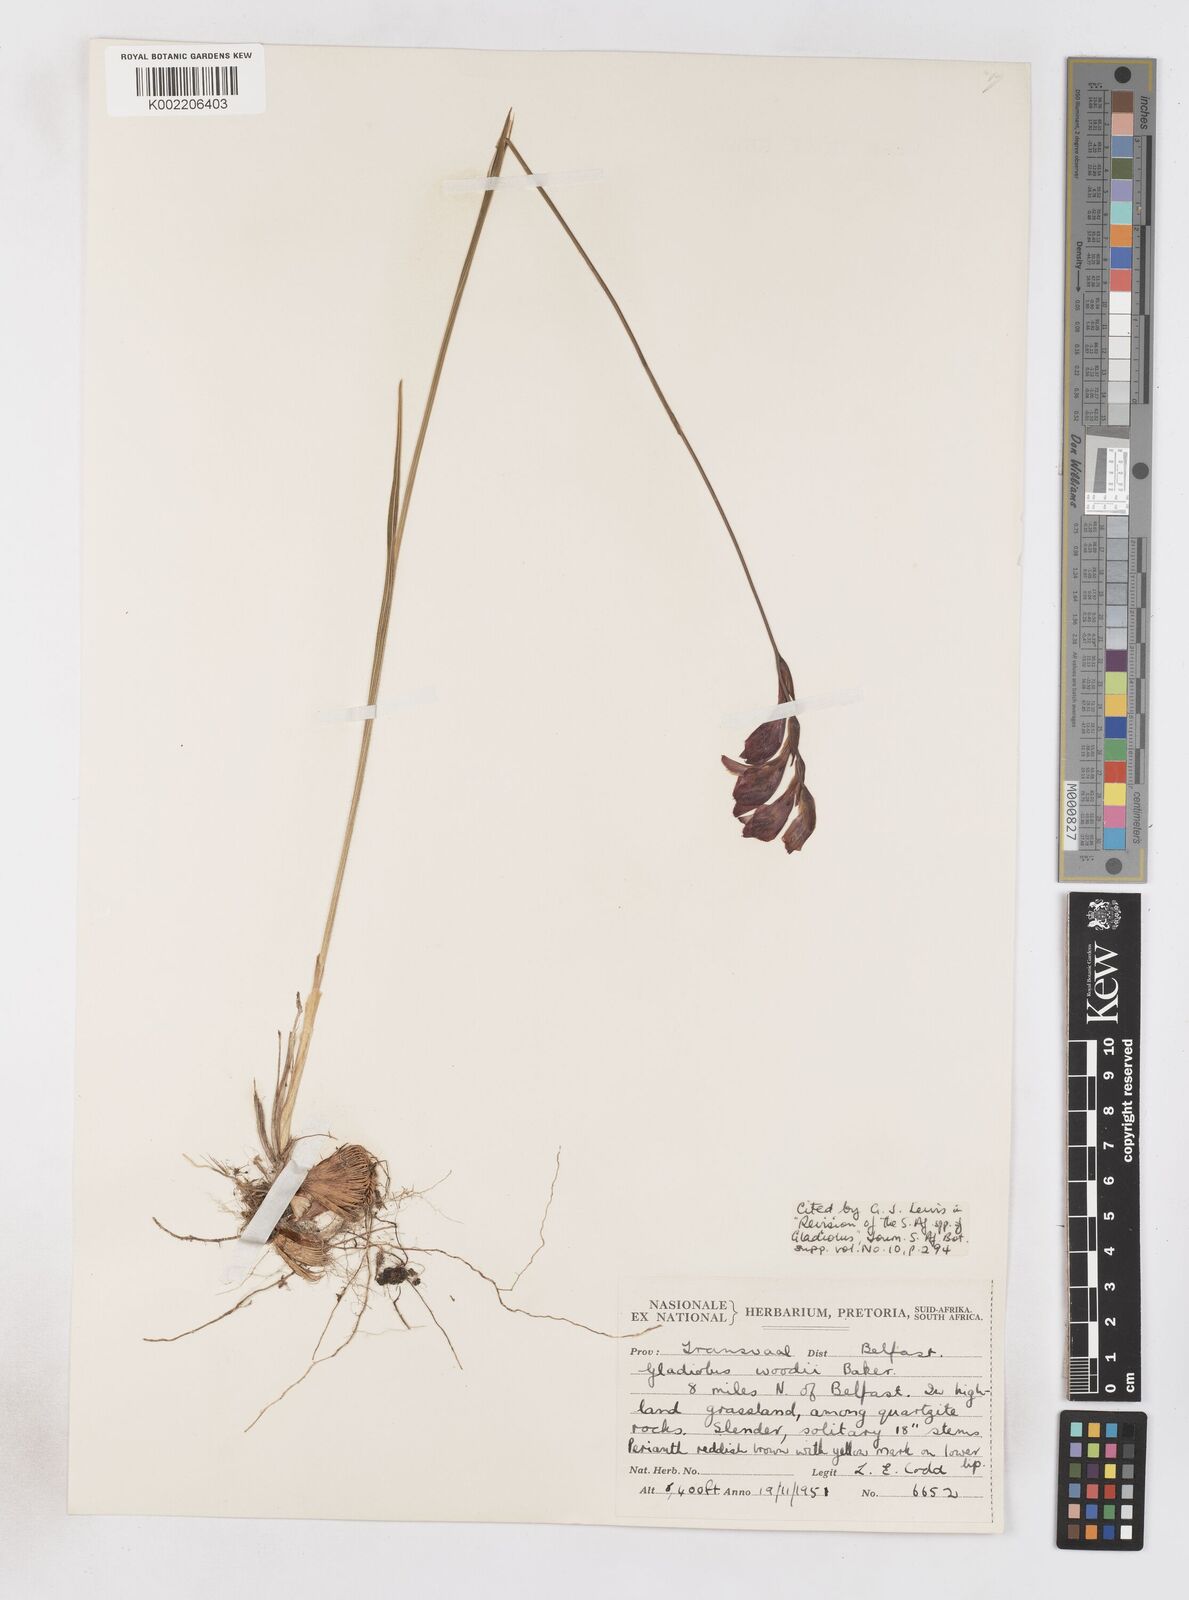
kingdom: Plantae
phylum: Tracheophyta
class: Liliopsida
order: Asparagales
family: Iridaceae
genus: Gladiolus
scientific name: Gladiolus woodii
